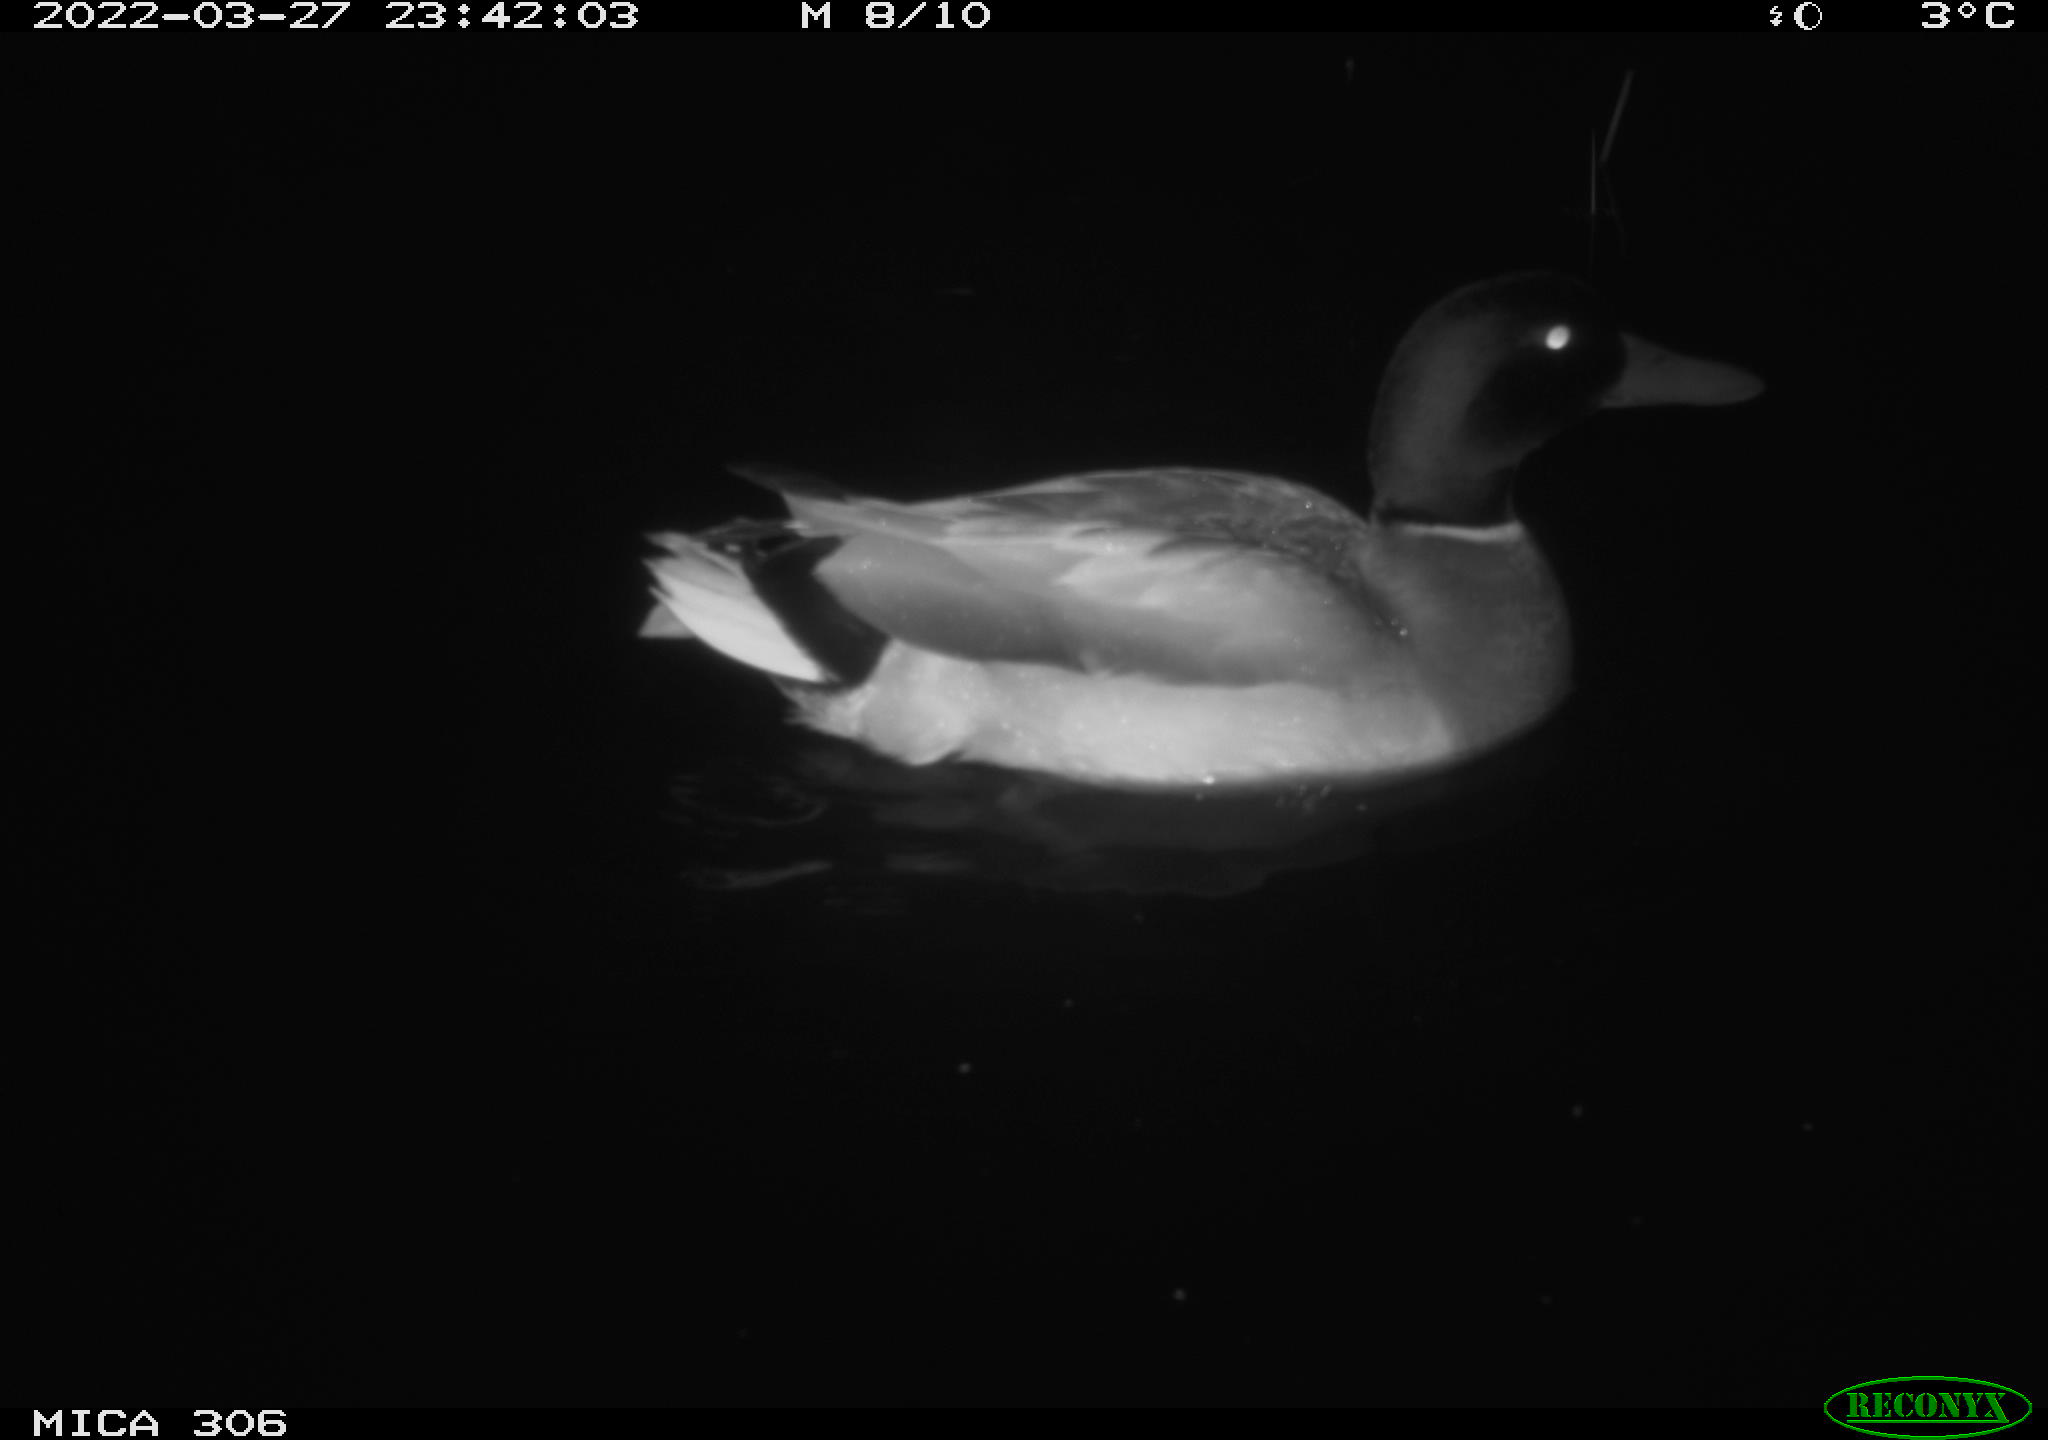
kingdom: Animalia
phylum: Chordata
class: Aves
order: Anseriformes
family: Anatidae
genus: Anas
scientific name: Anas
